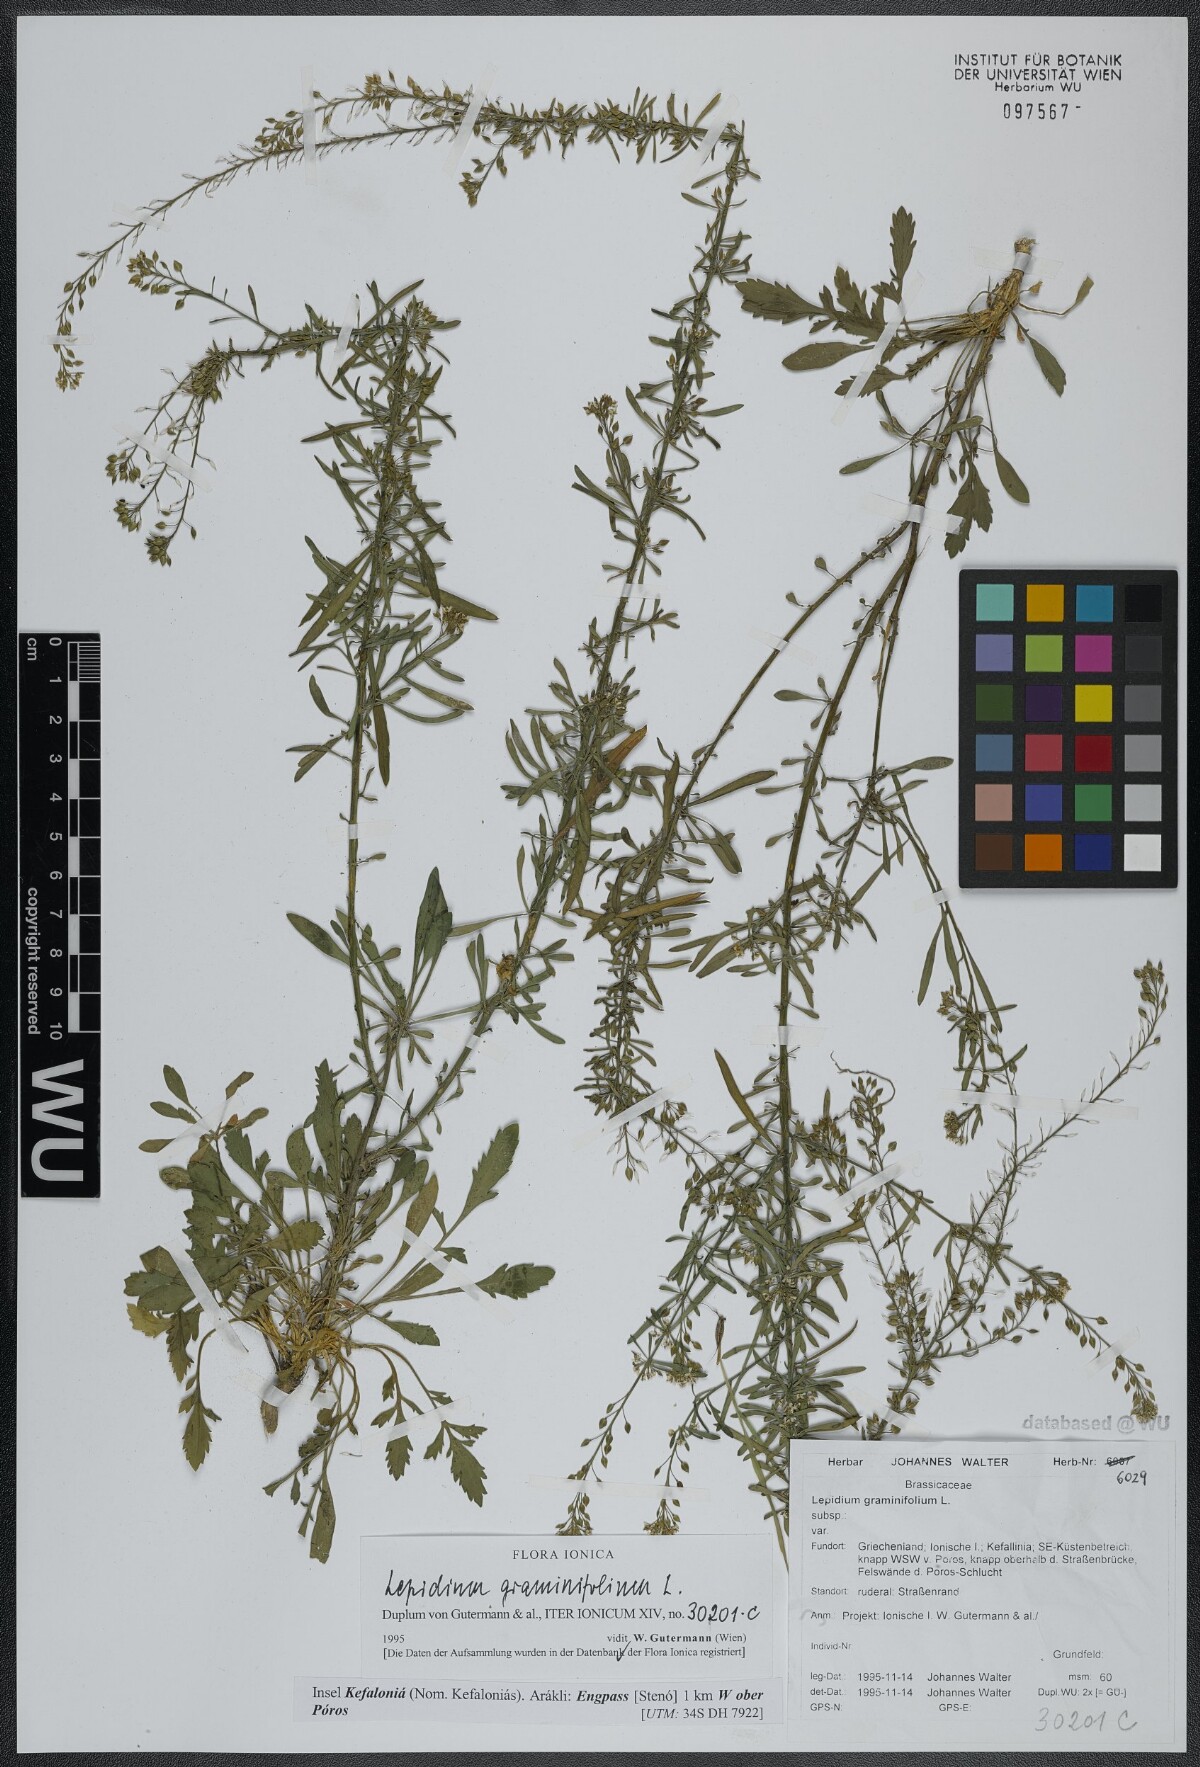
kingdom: Plantae
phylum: Tracheophyta
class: Magnoliopsida
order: Brassicales
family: Brassicaceae
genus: Lepidium
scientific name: Lepidium graminifolium
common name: Tall pepperwort
